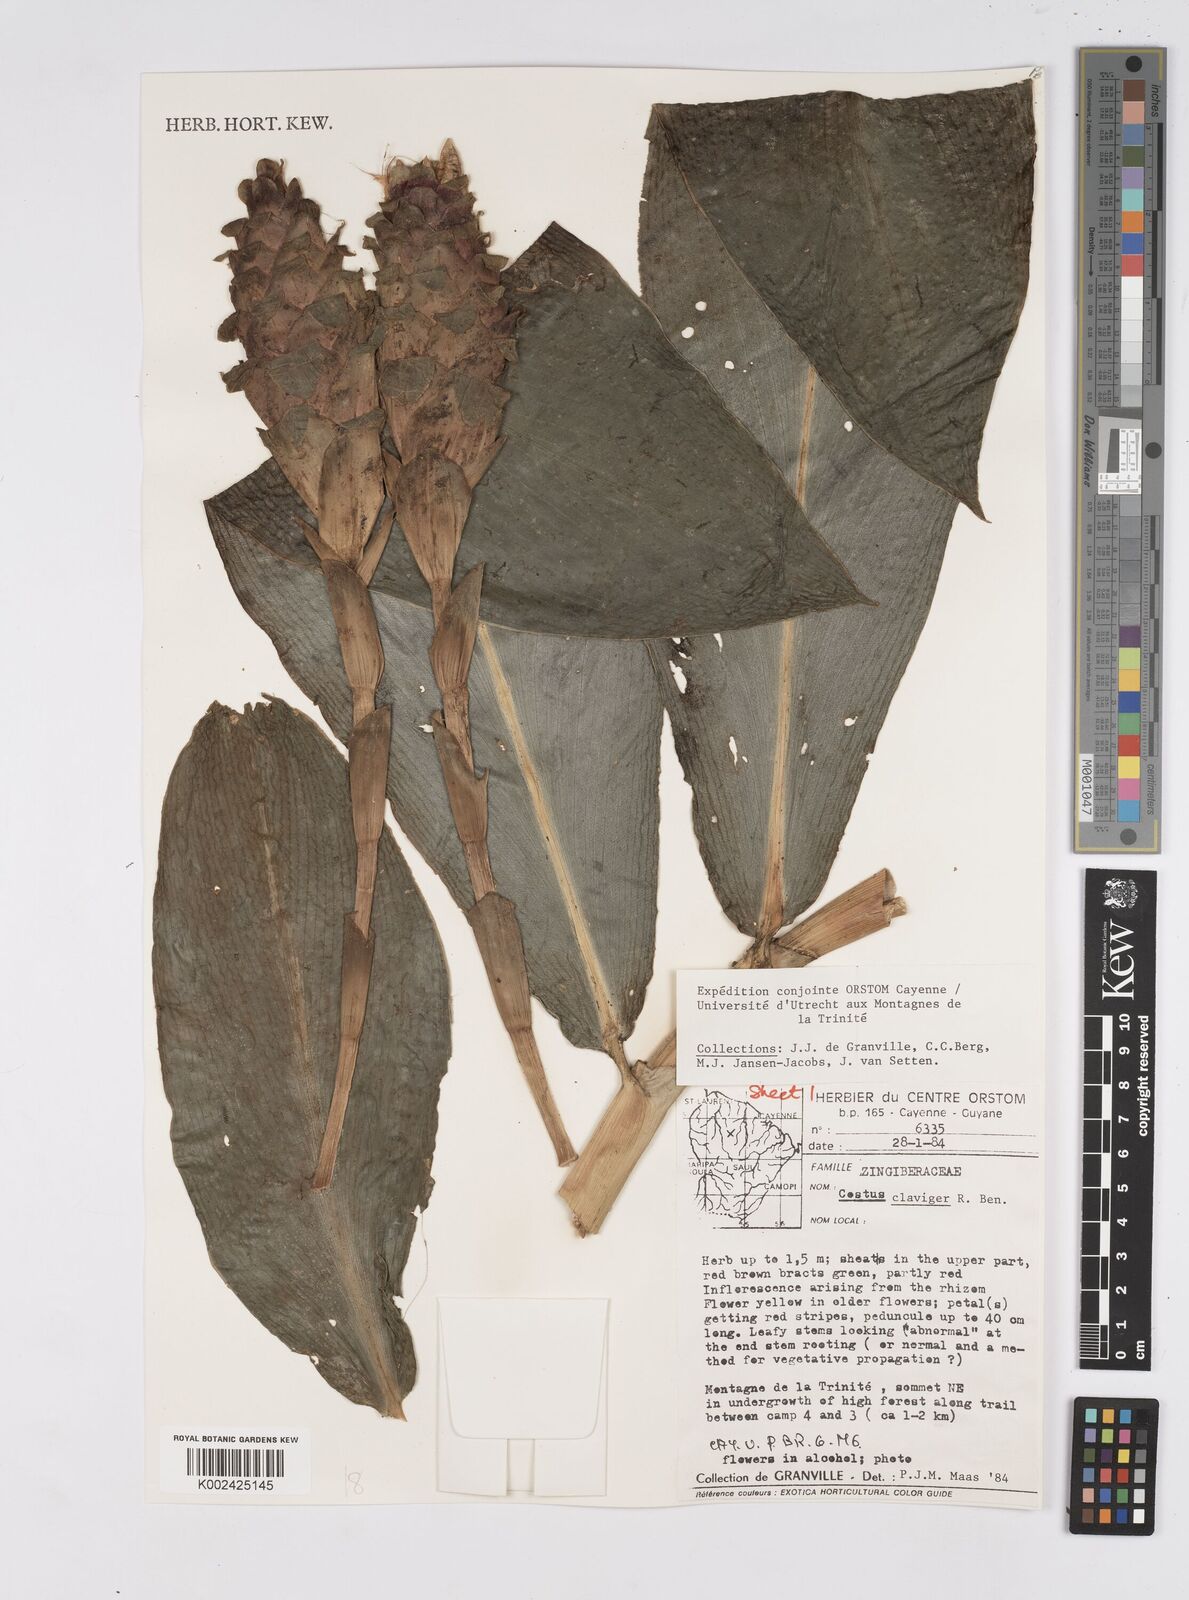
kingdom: Plantae
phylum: Tracheophyta
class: Liliopsida
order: Zingiberales
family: Costaceae
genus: Costus
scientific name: Costus claviger
